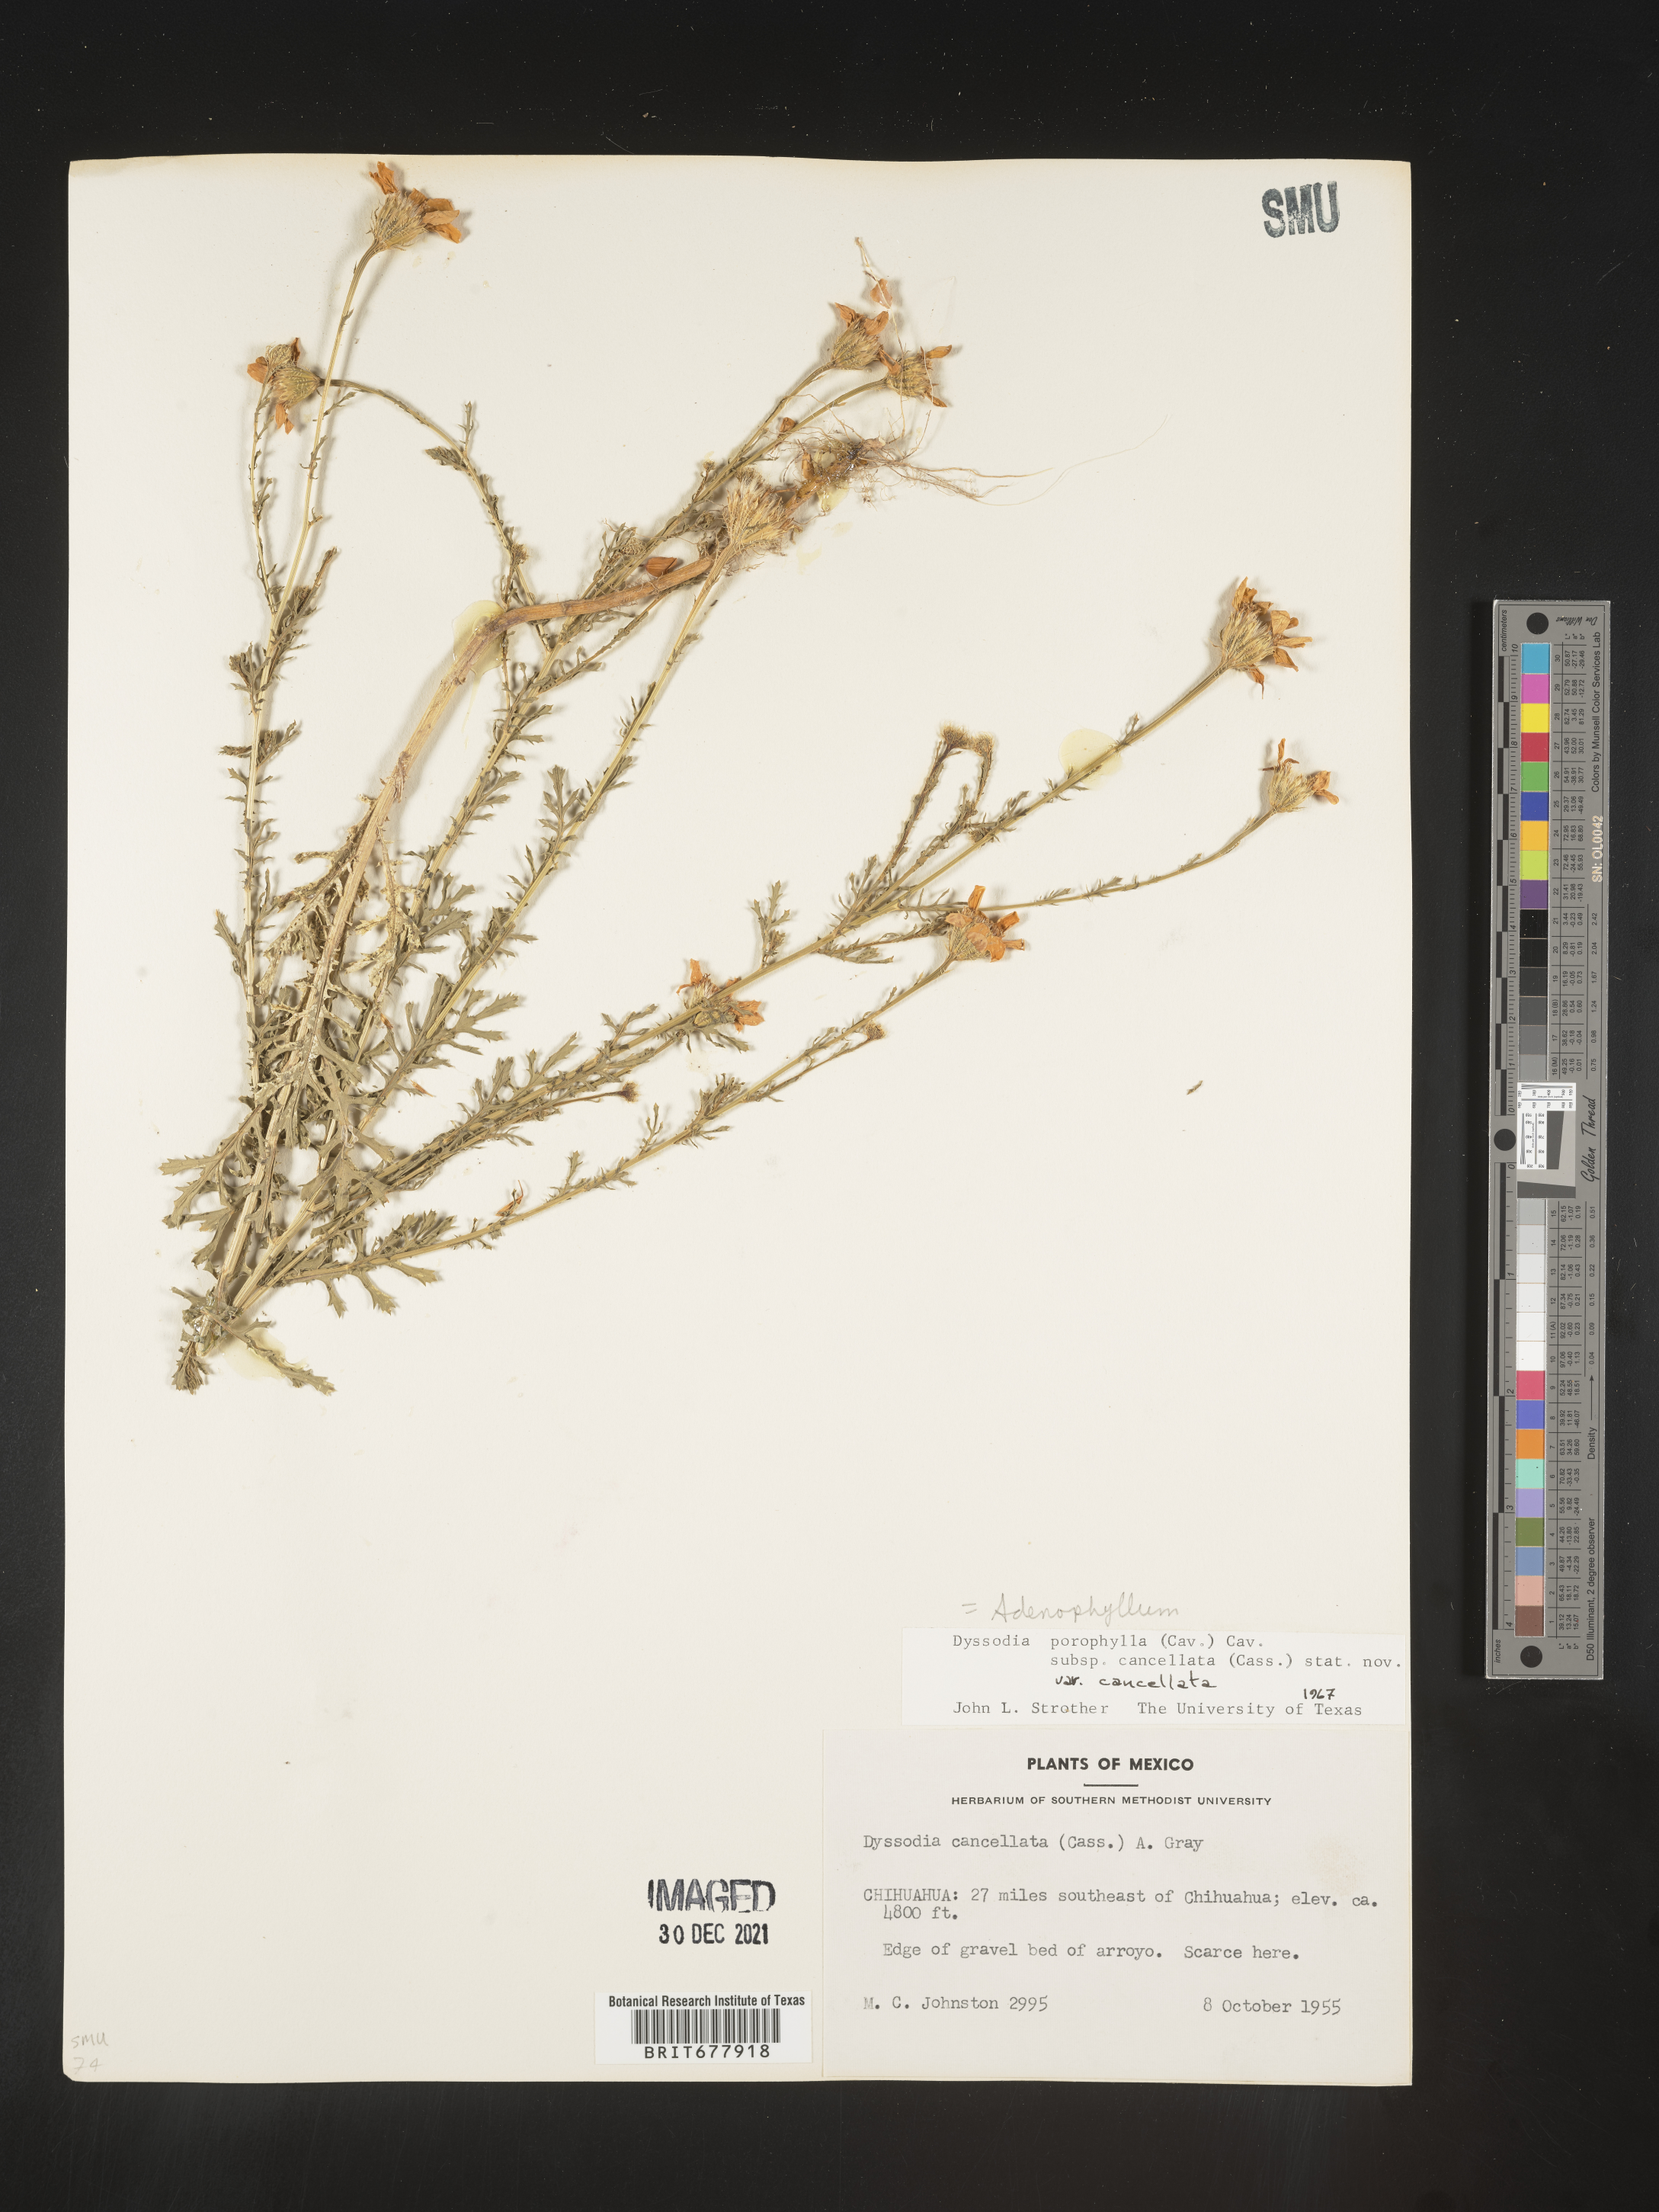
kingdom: Plantae
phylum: Tracheophyta
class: Magnoliopsida
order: Asterales
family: Asteraceae
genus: Adenophyllum
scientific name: Adenophyllum porophyllum
